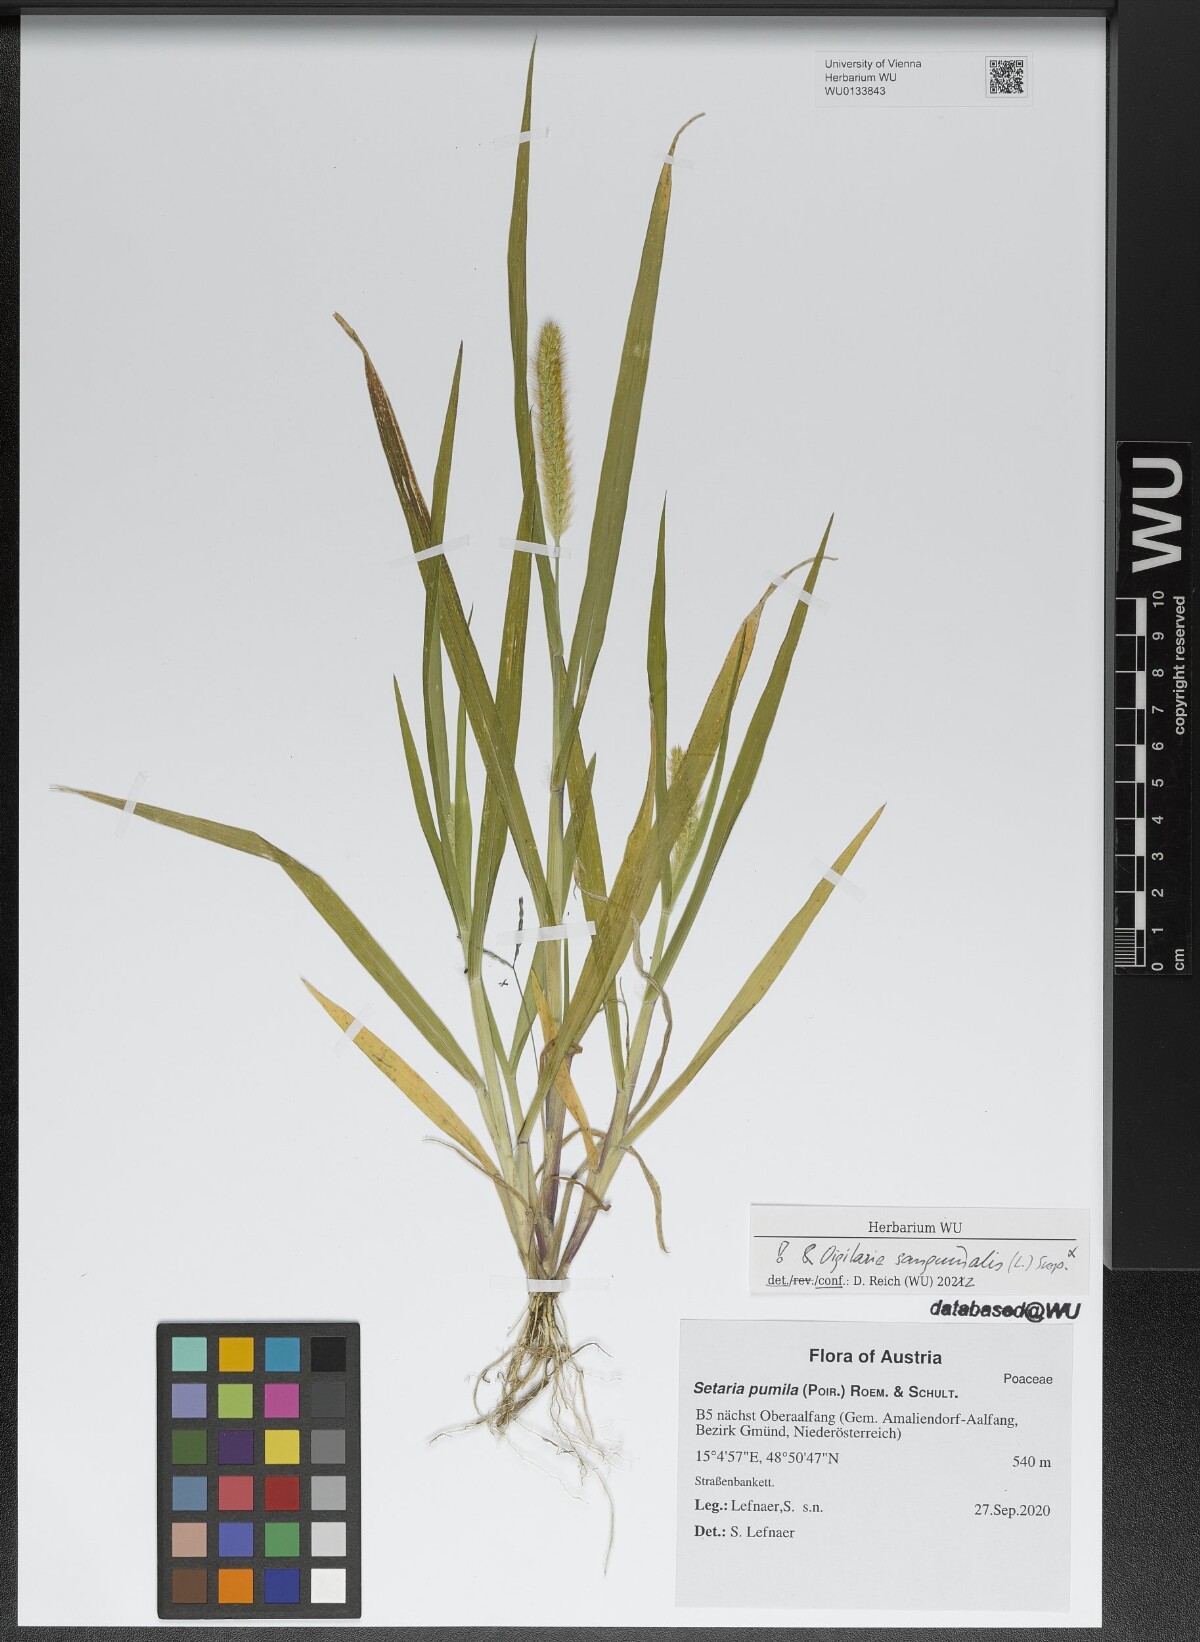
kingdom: Plantae
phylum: Tracheophyta
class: Liliopsida
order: Poales
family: Poaceae
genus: Setaria
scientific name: Setaria pumila
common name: Yellow bristle-grass
